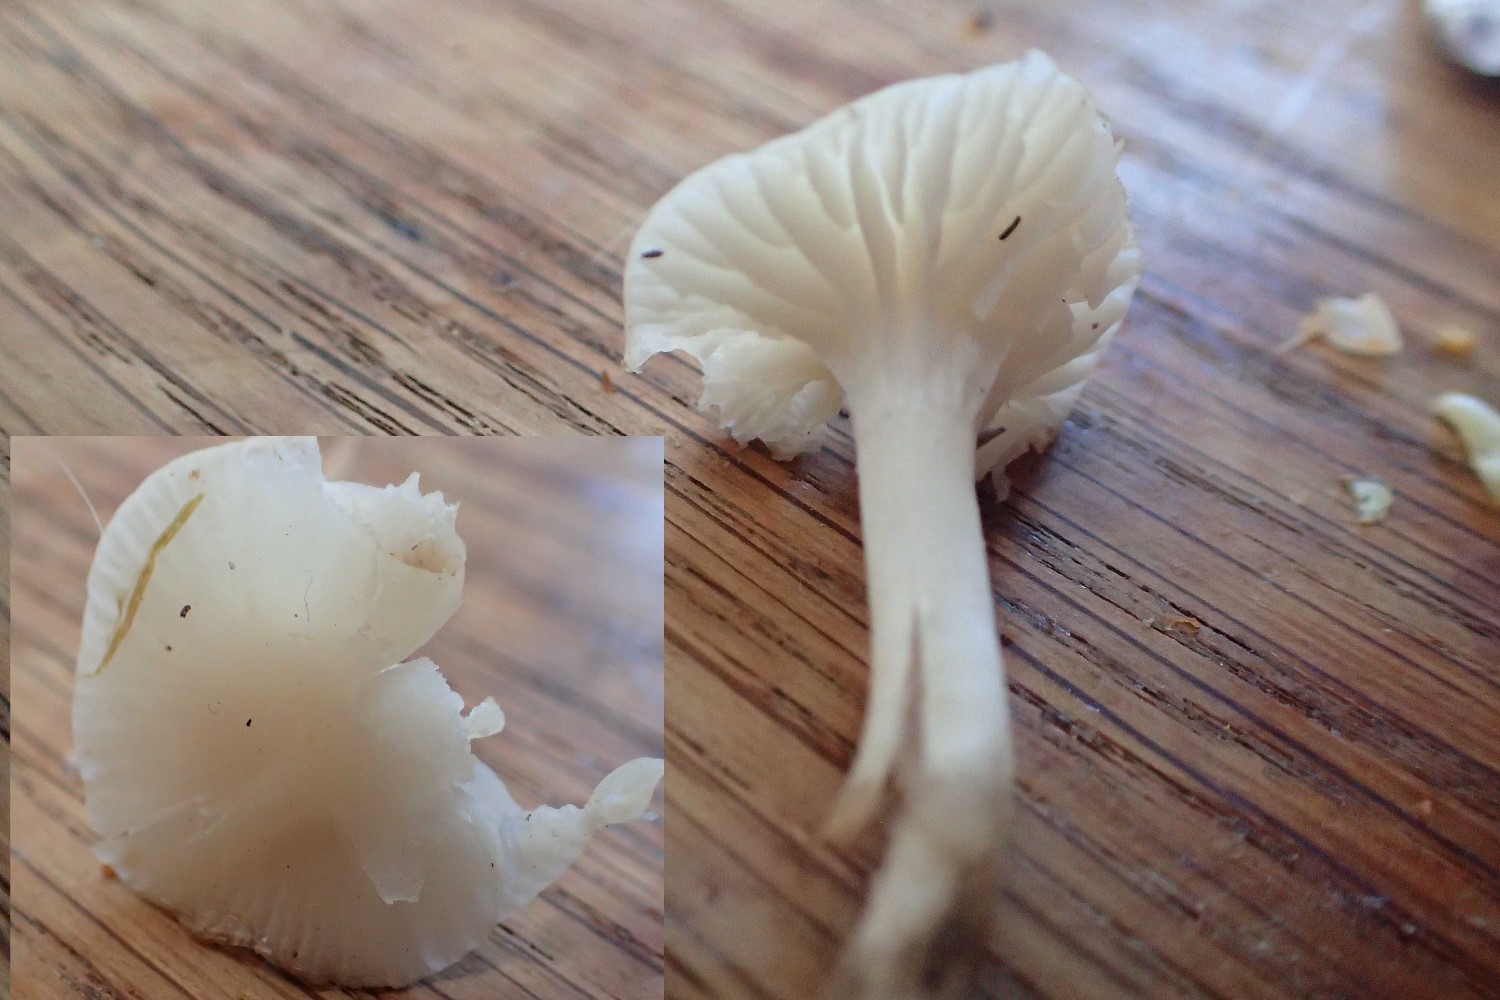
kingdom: Fungi
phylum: Basidiomycota
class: Agaricomycetes
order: Agaricales
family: Hygrophoraceae
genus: Cuphophyllus
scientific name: Cuphophyllus virgineus
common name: snehvid vokshat
